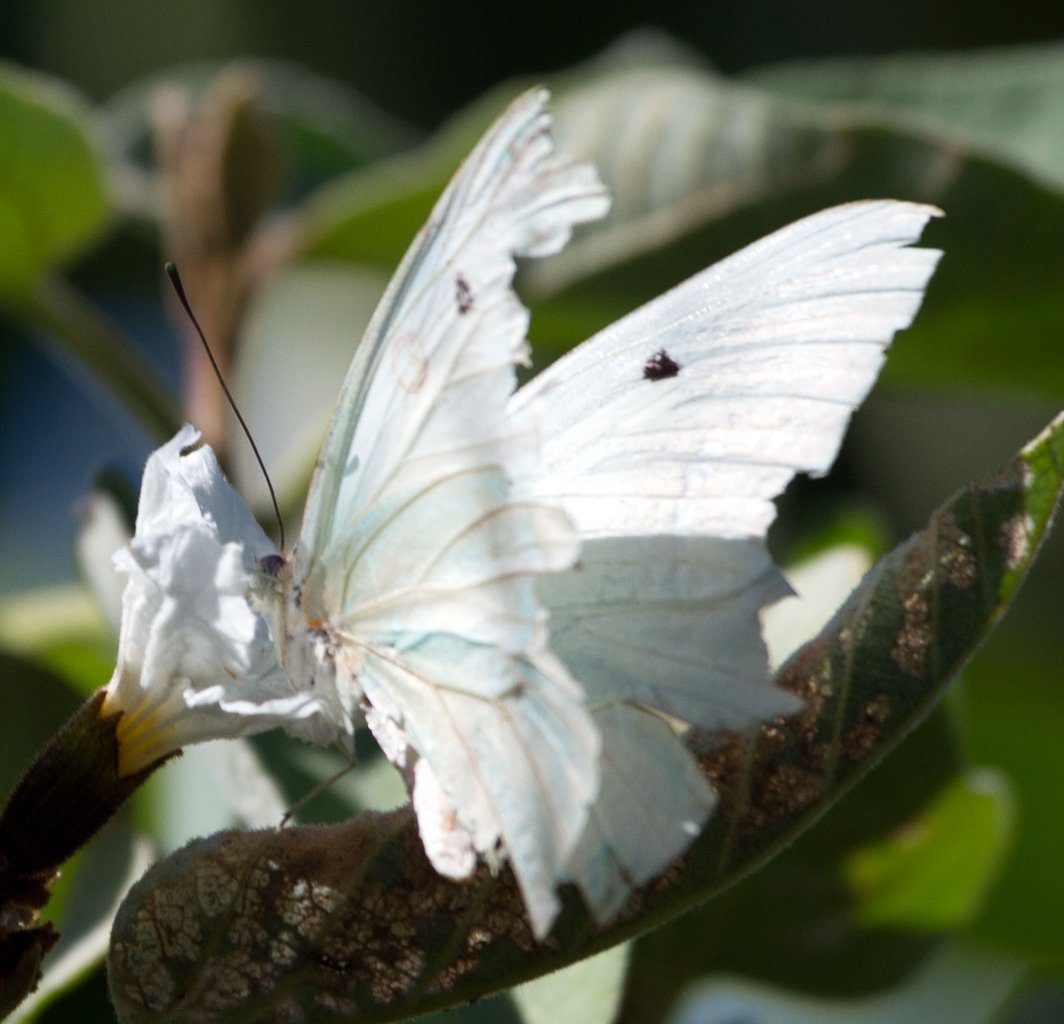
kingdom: Animalia
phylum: Arthropoda
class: Insecta
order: Lepidoptera
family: Pieridae
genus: Ganyra
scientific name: Ganyra josephina
